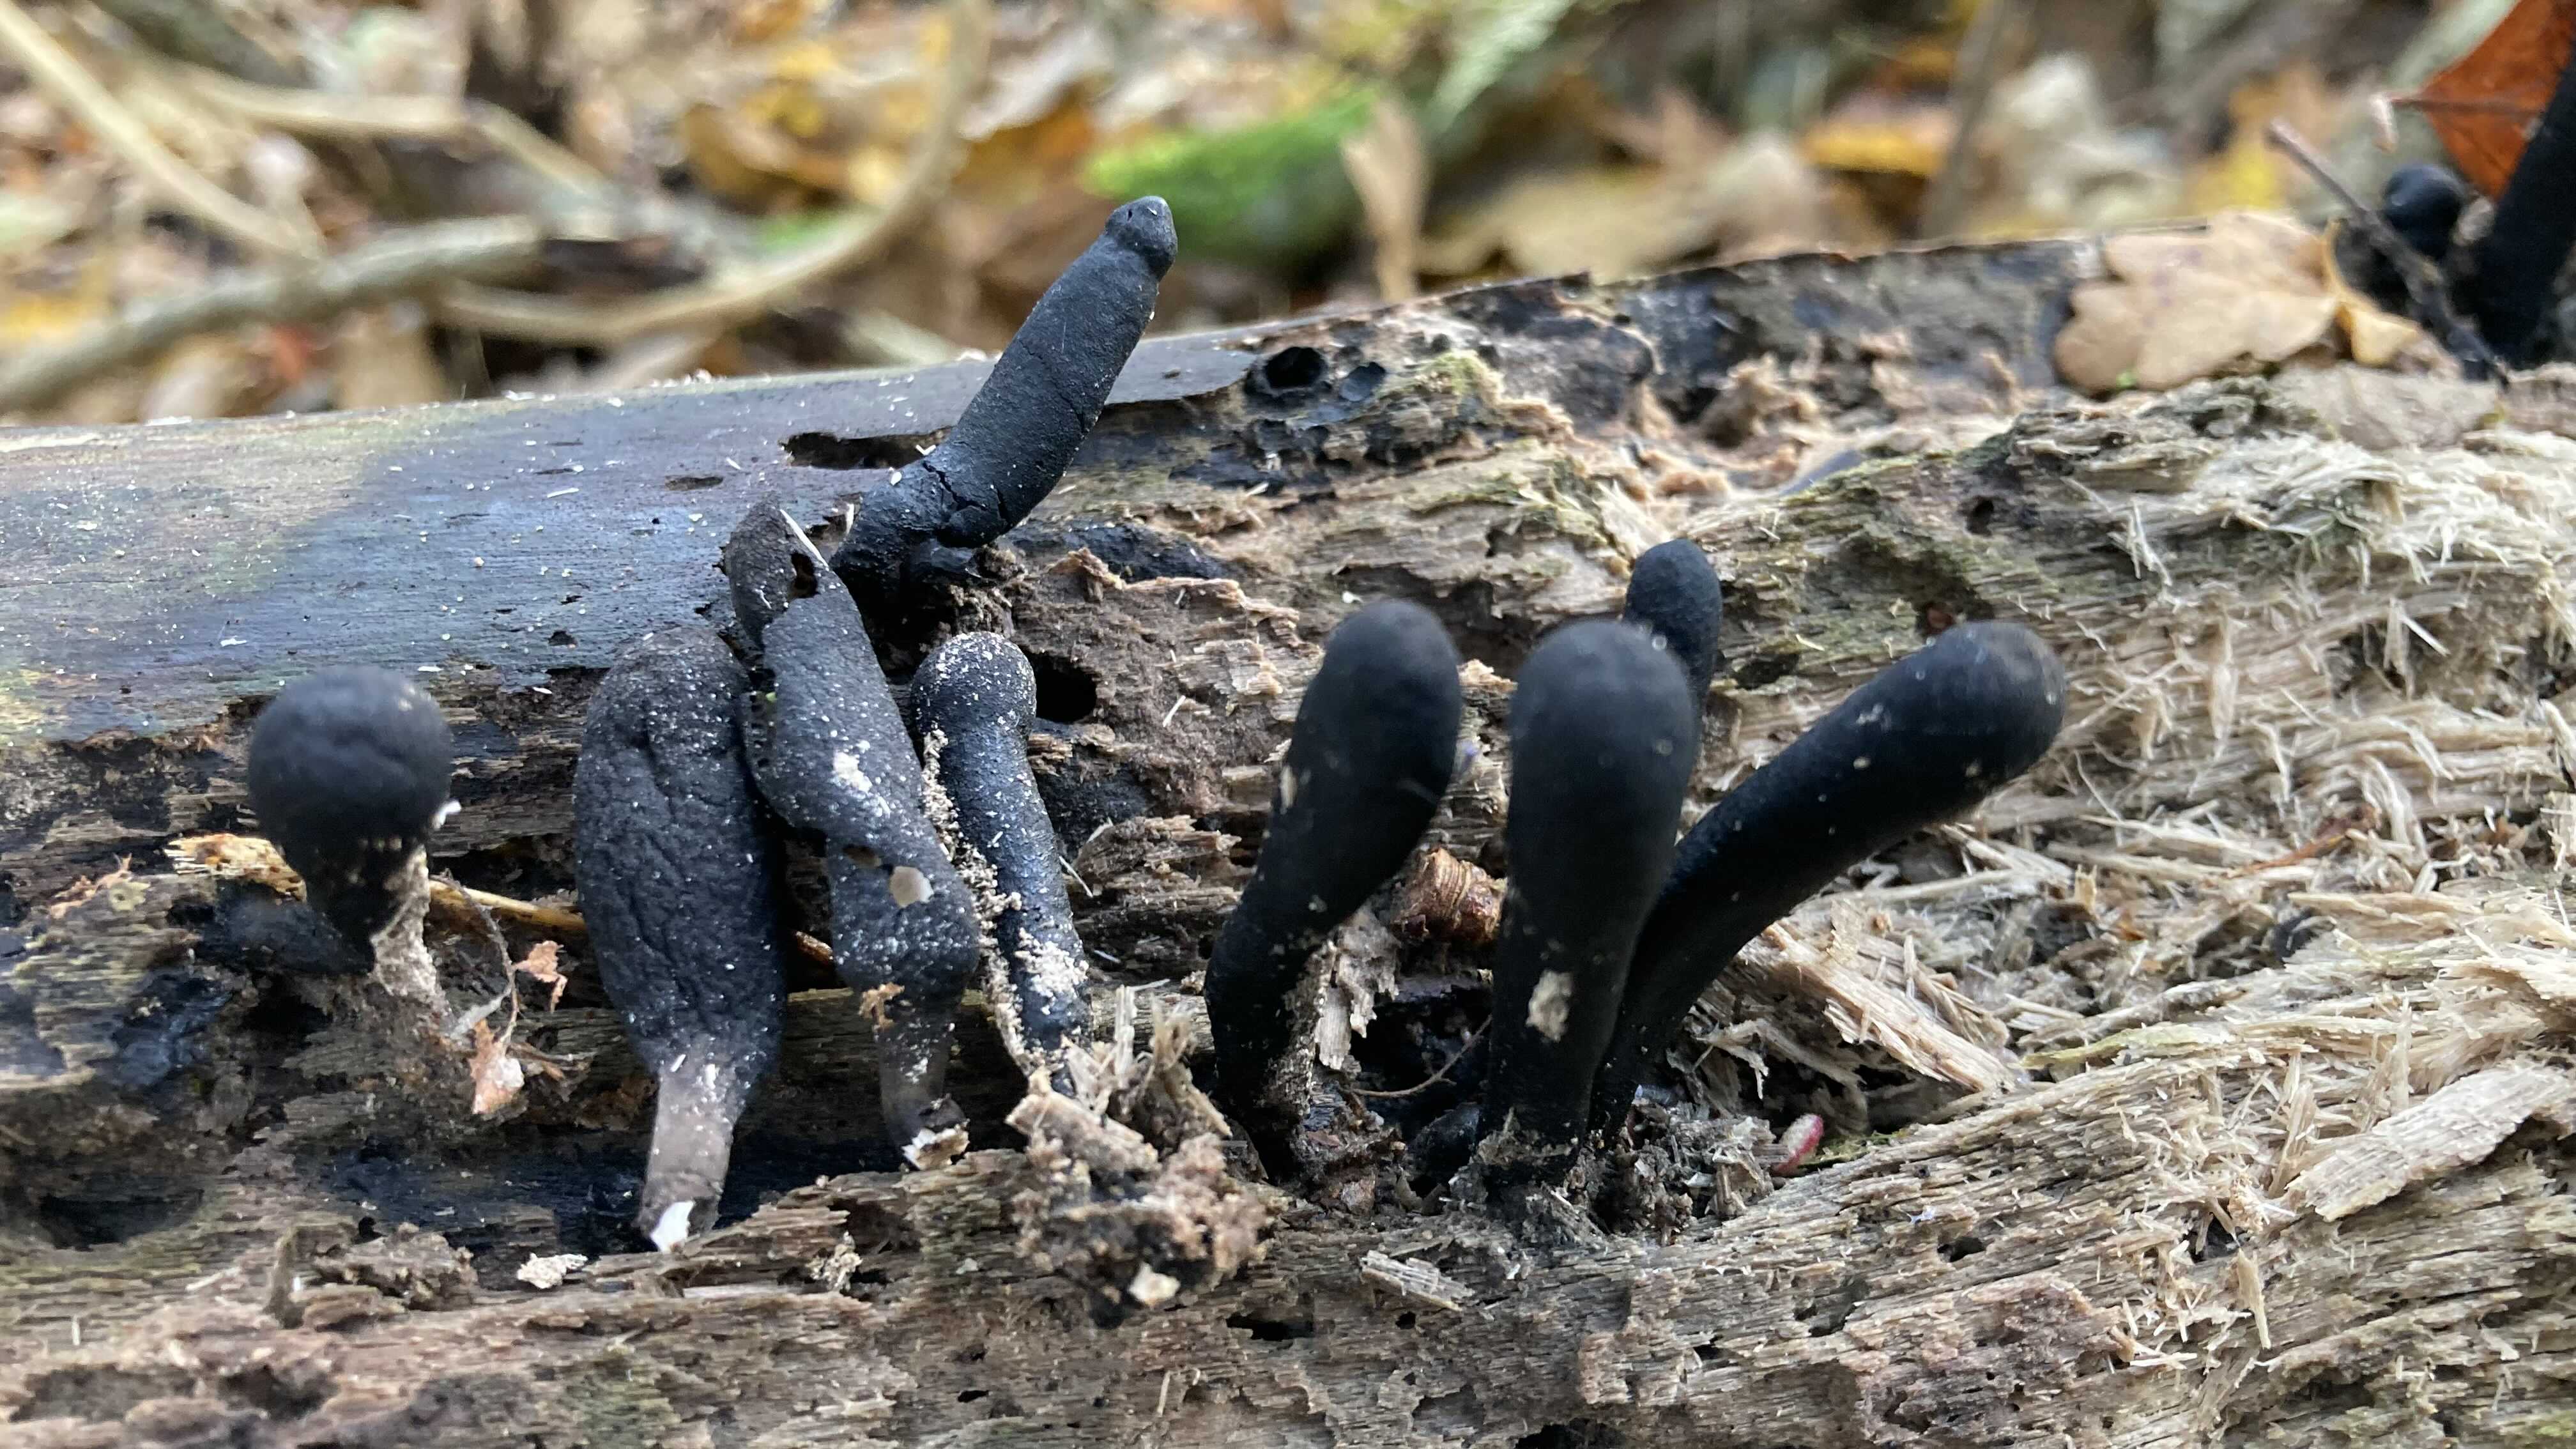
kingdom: Fungi
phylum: Ascomycota
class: Sordariomycetes
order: Xylariales
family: Xylariaceae
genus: Xylaria
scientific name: Xylaria longipes
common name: slank stødsvamp
